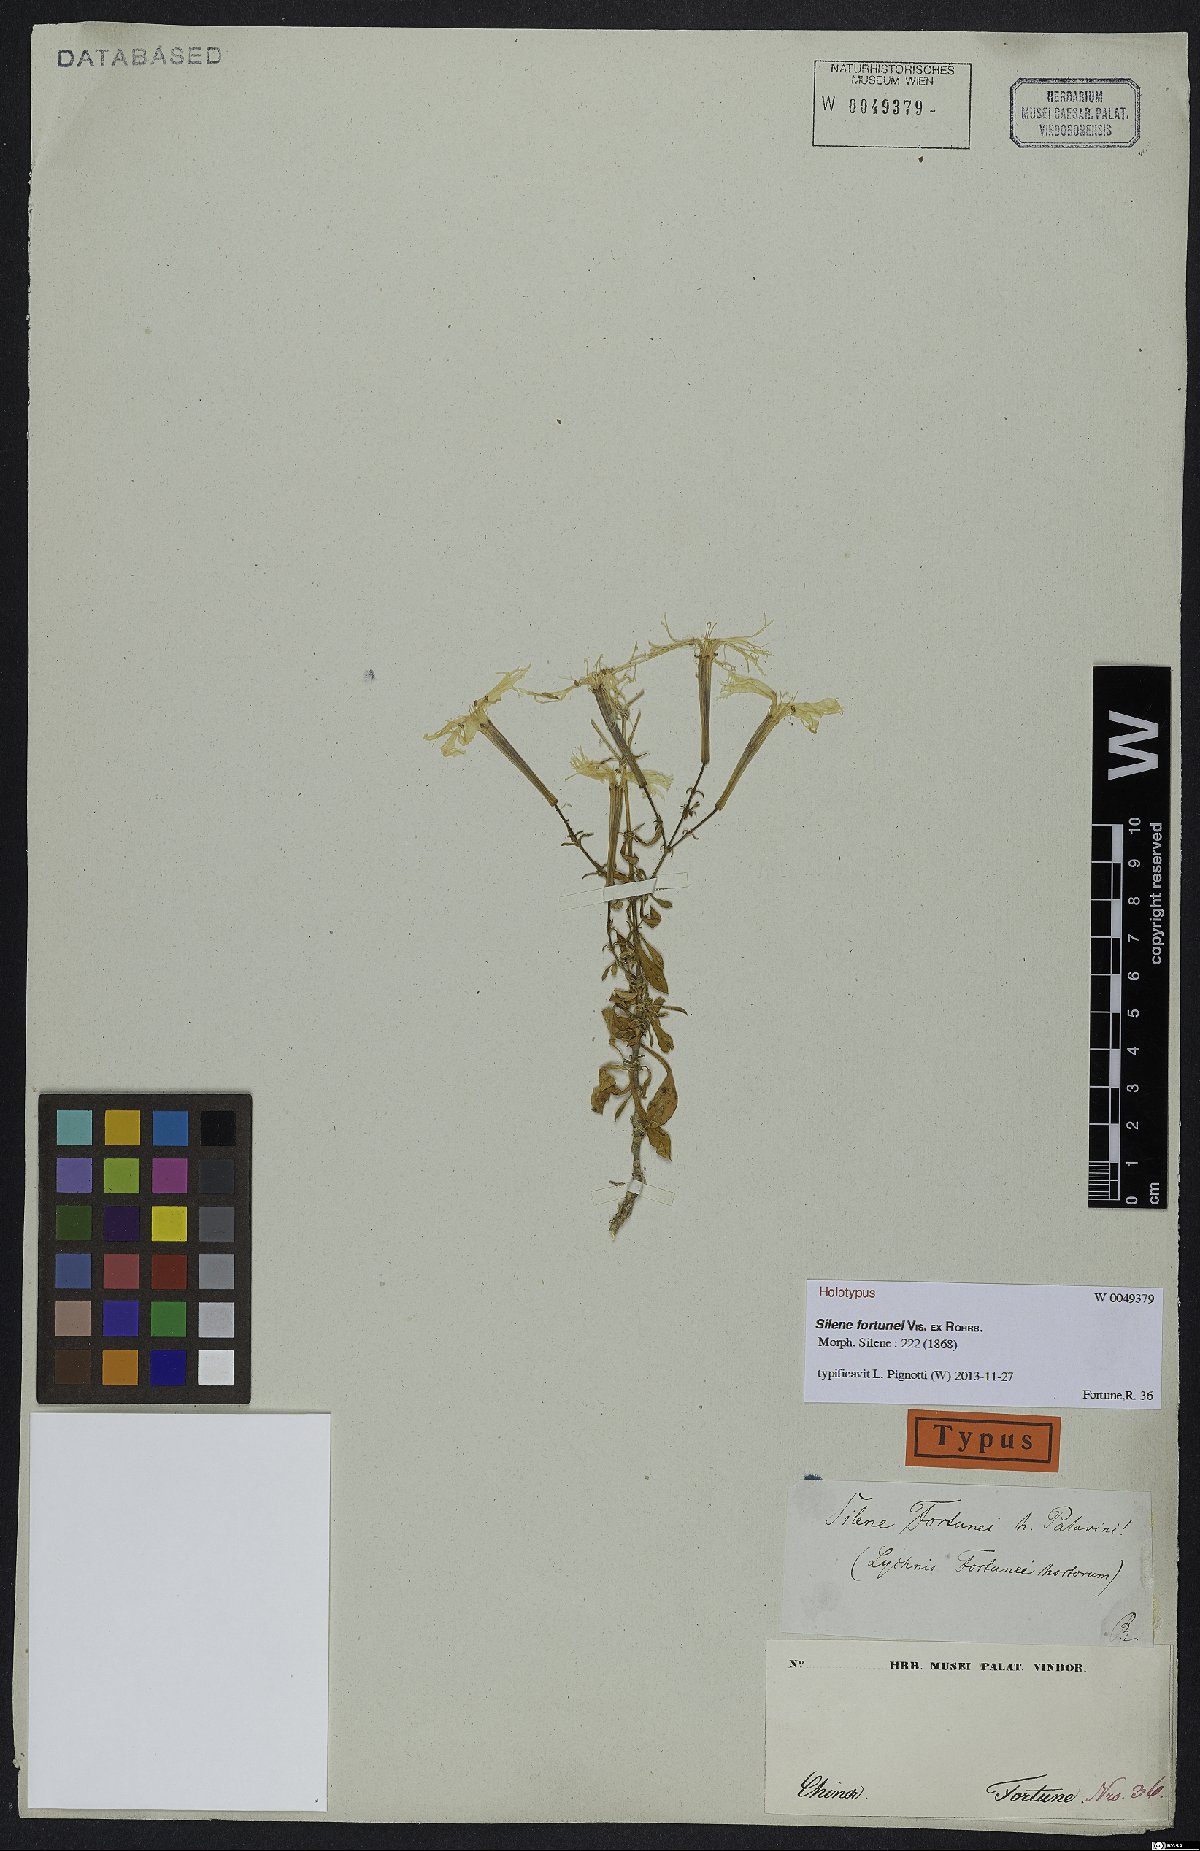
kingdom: Plantae
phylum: Tracheophyta
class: Magnoliopsida
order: Caryophyllales
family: Caryophyllaceae
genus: Silene
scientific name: Silene fissipetala
